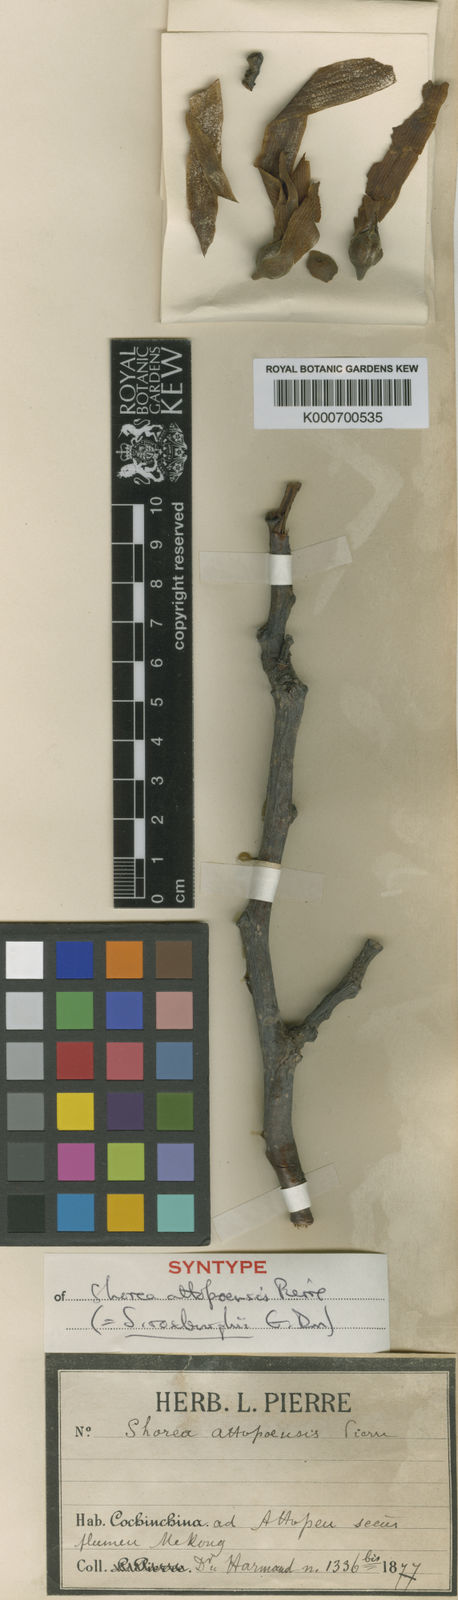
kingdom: Plantae
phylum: Tracheophyta
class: Magnoliopsida
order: Malvales
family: Dipterocarpaceae
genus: Anthoshorea
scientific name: Anthoshorea roxburghii
